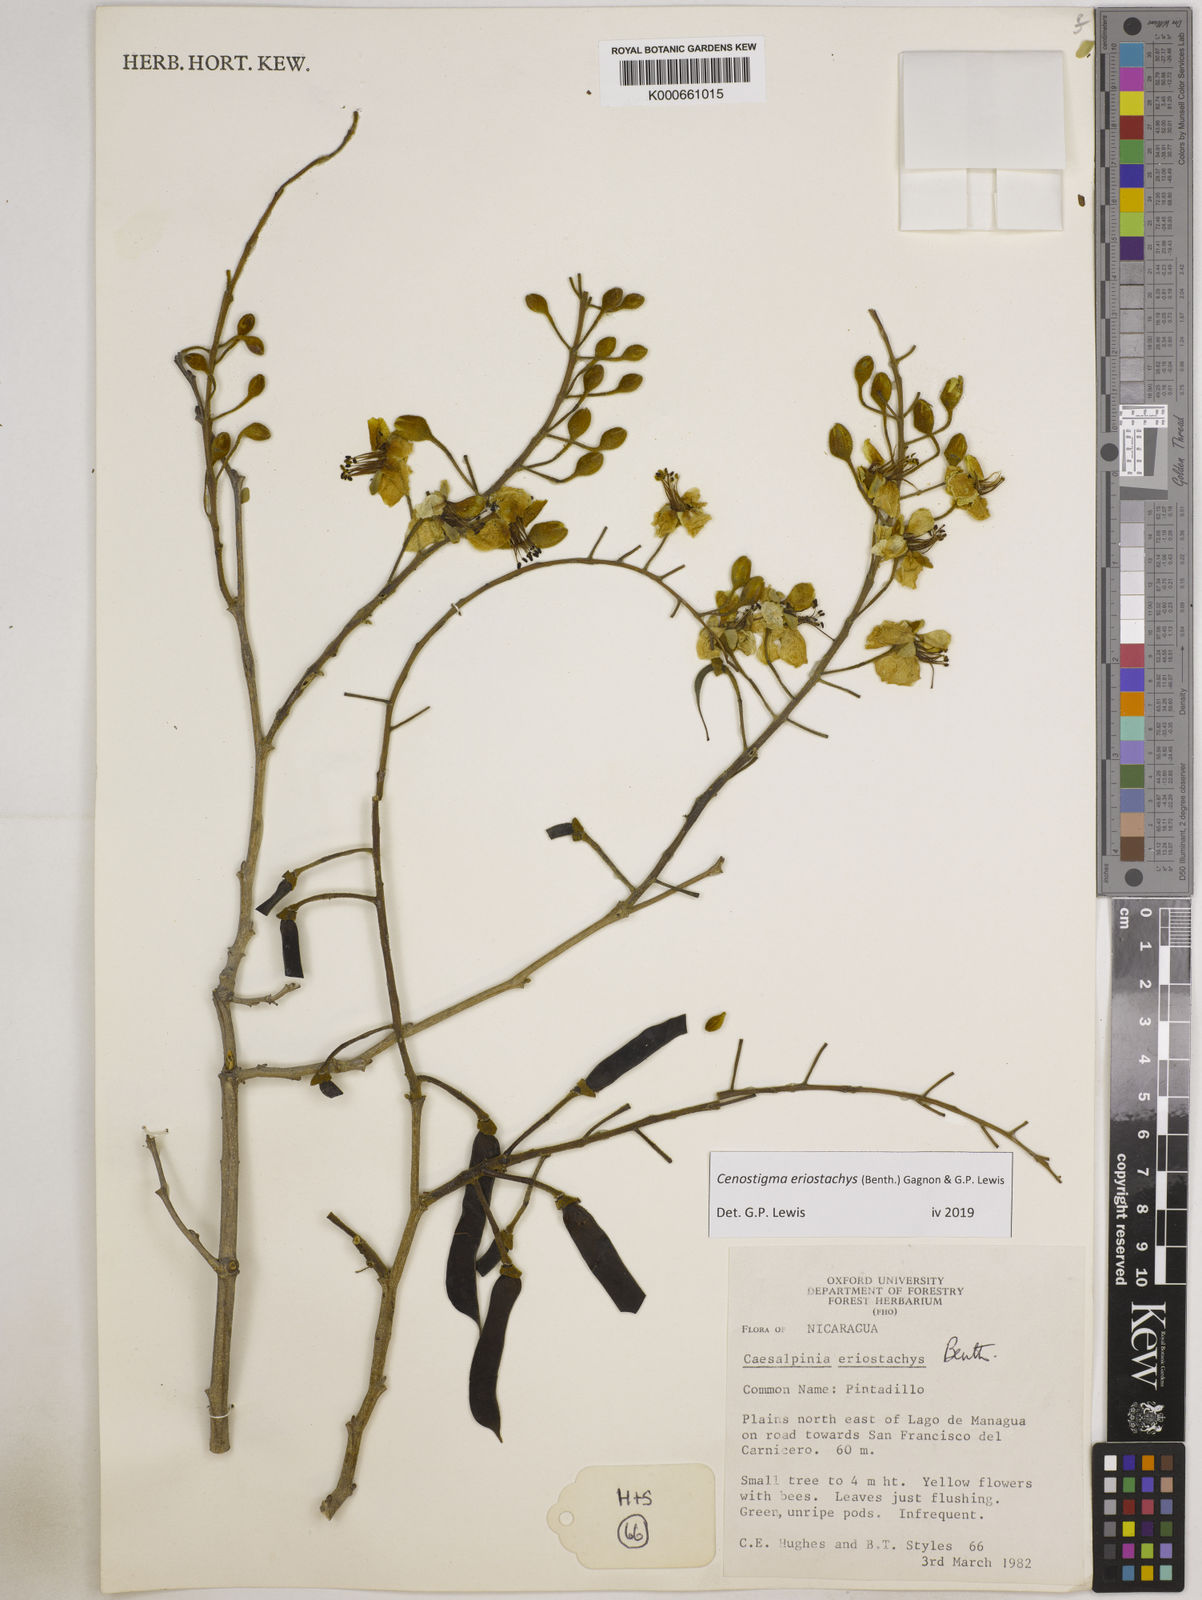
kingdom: Plantae
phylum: Tracheophyta
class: Magnoliopsida
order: Fabales
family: Fabaceae
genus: Cenostigma
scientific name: Cenostigma eriostachys
